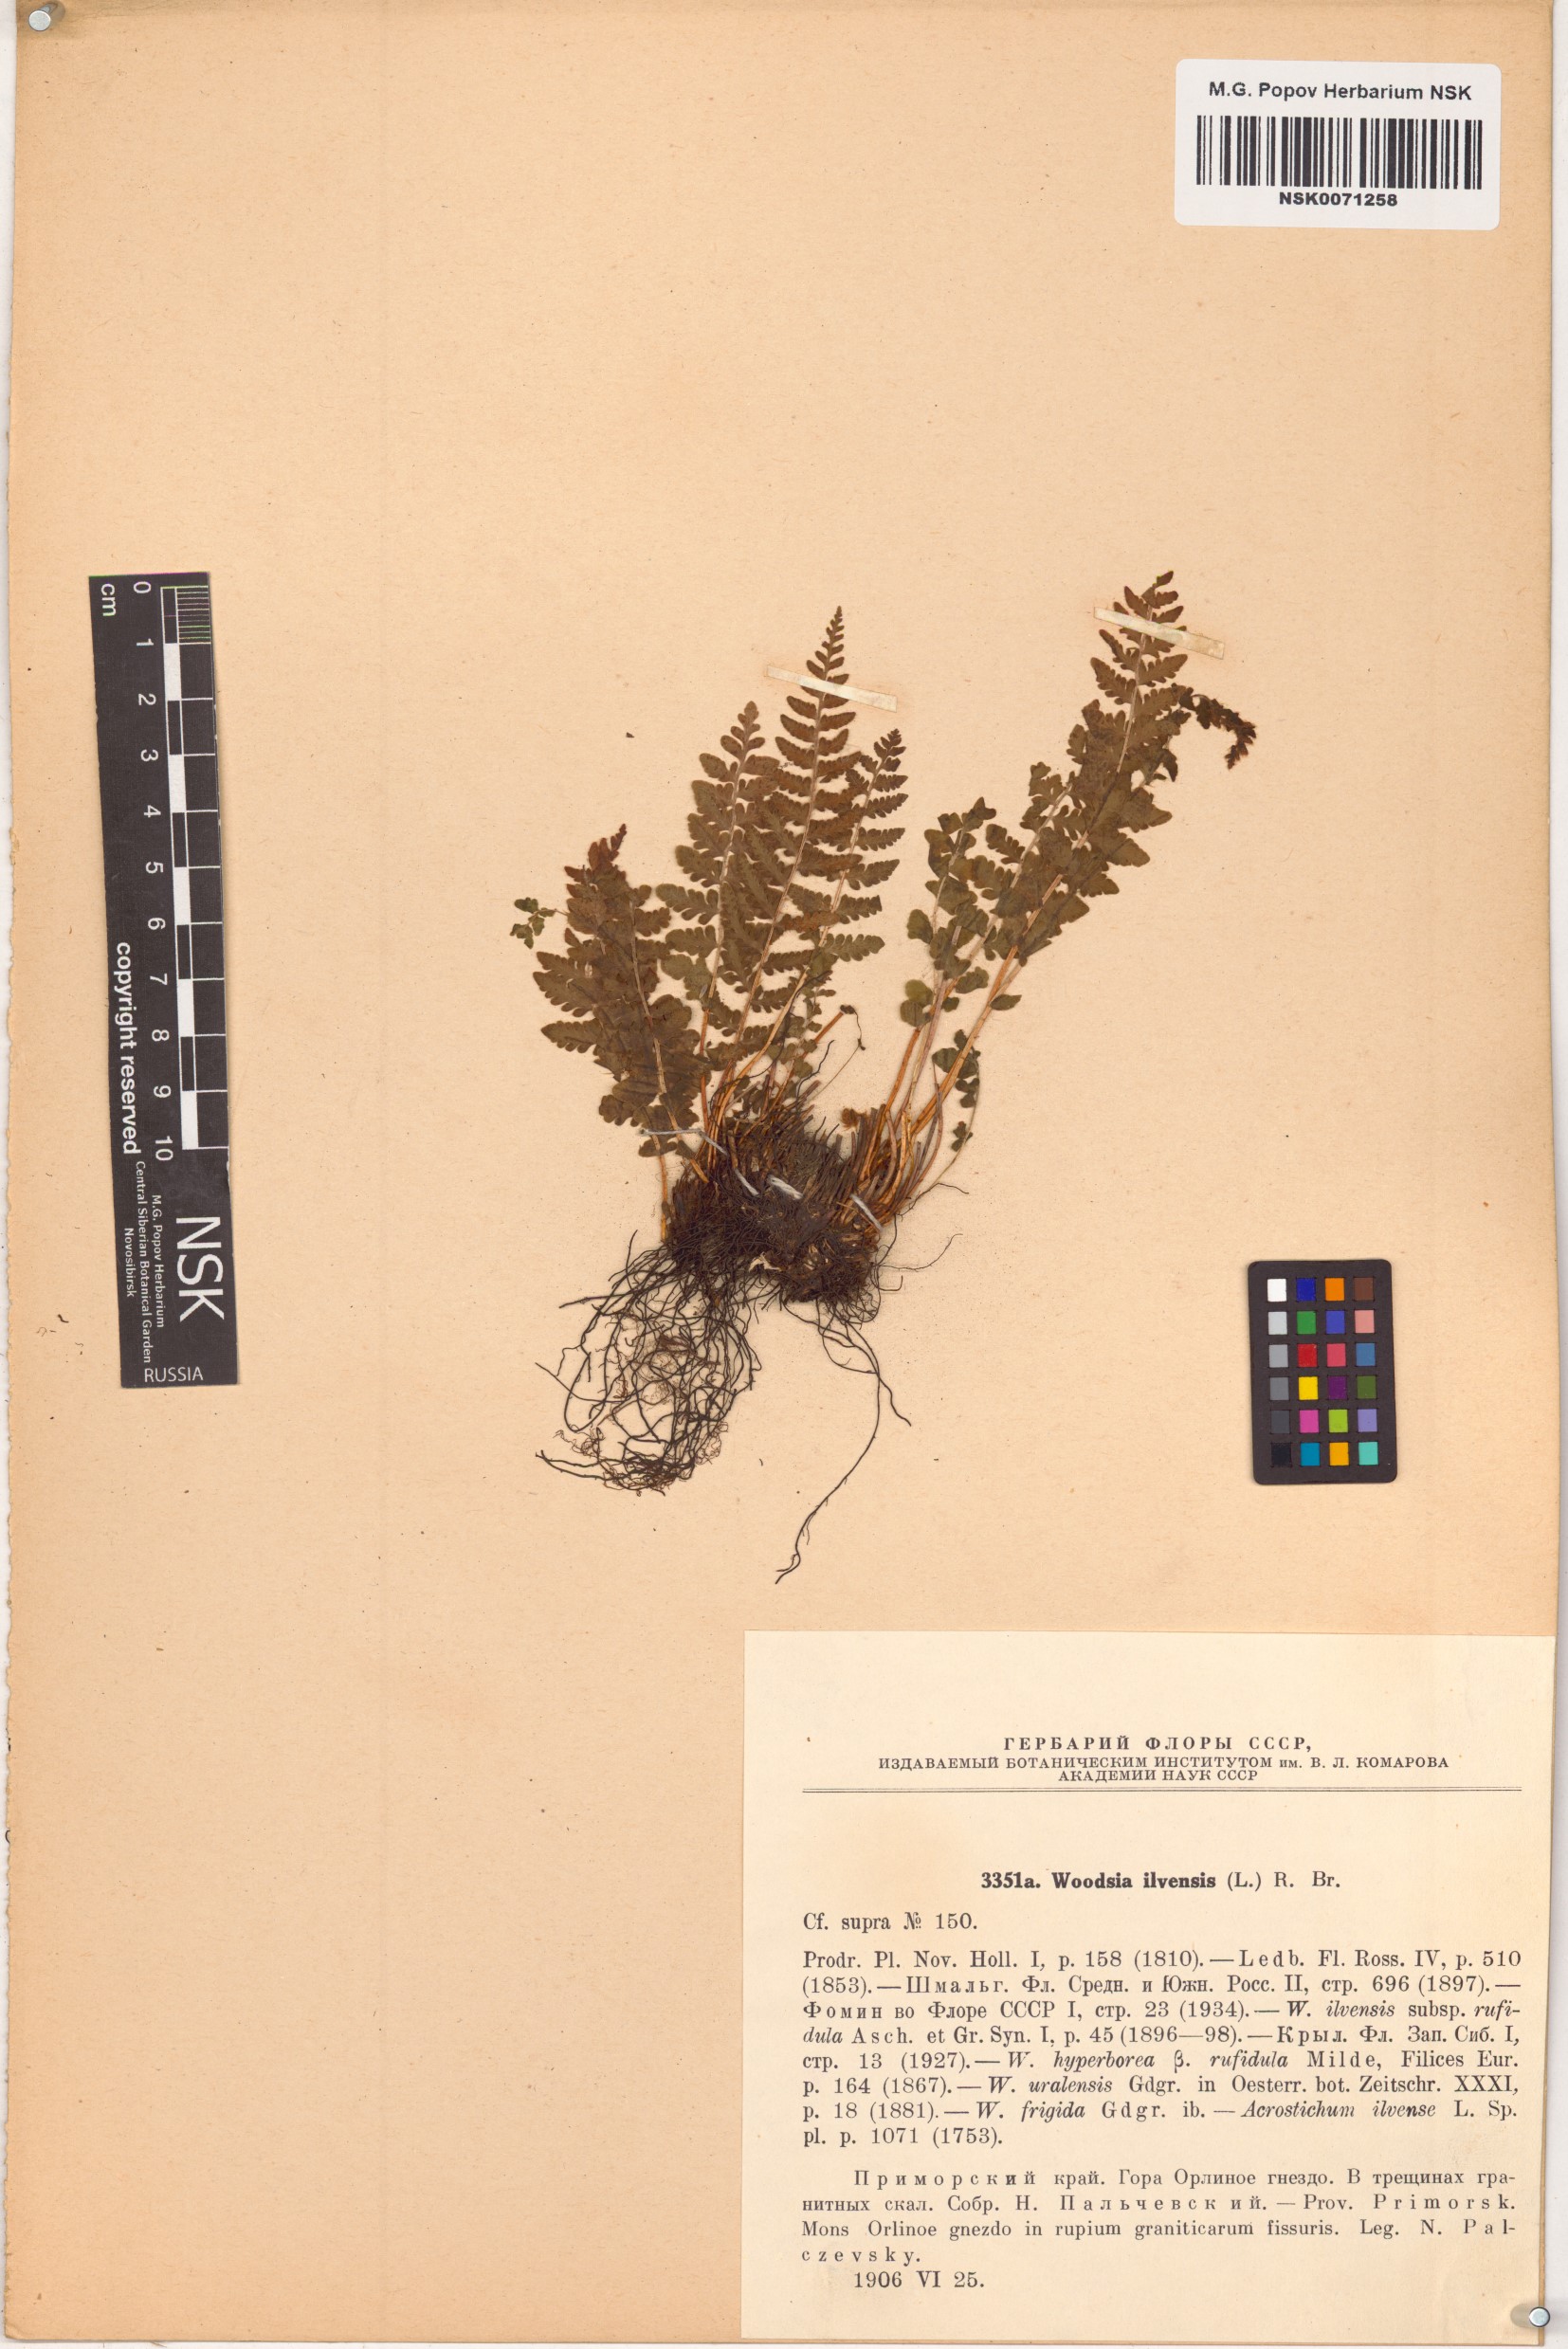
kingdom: Plantae
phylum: Tracheophyta
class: Polypodiopsida
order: Polypodiales
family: Woodsiaceae
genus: Woodsia
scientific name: Woodsia ilvensis
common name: Fragrant woodsia
